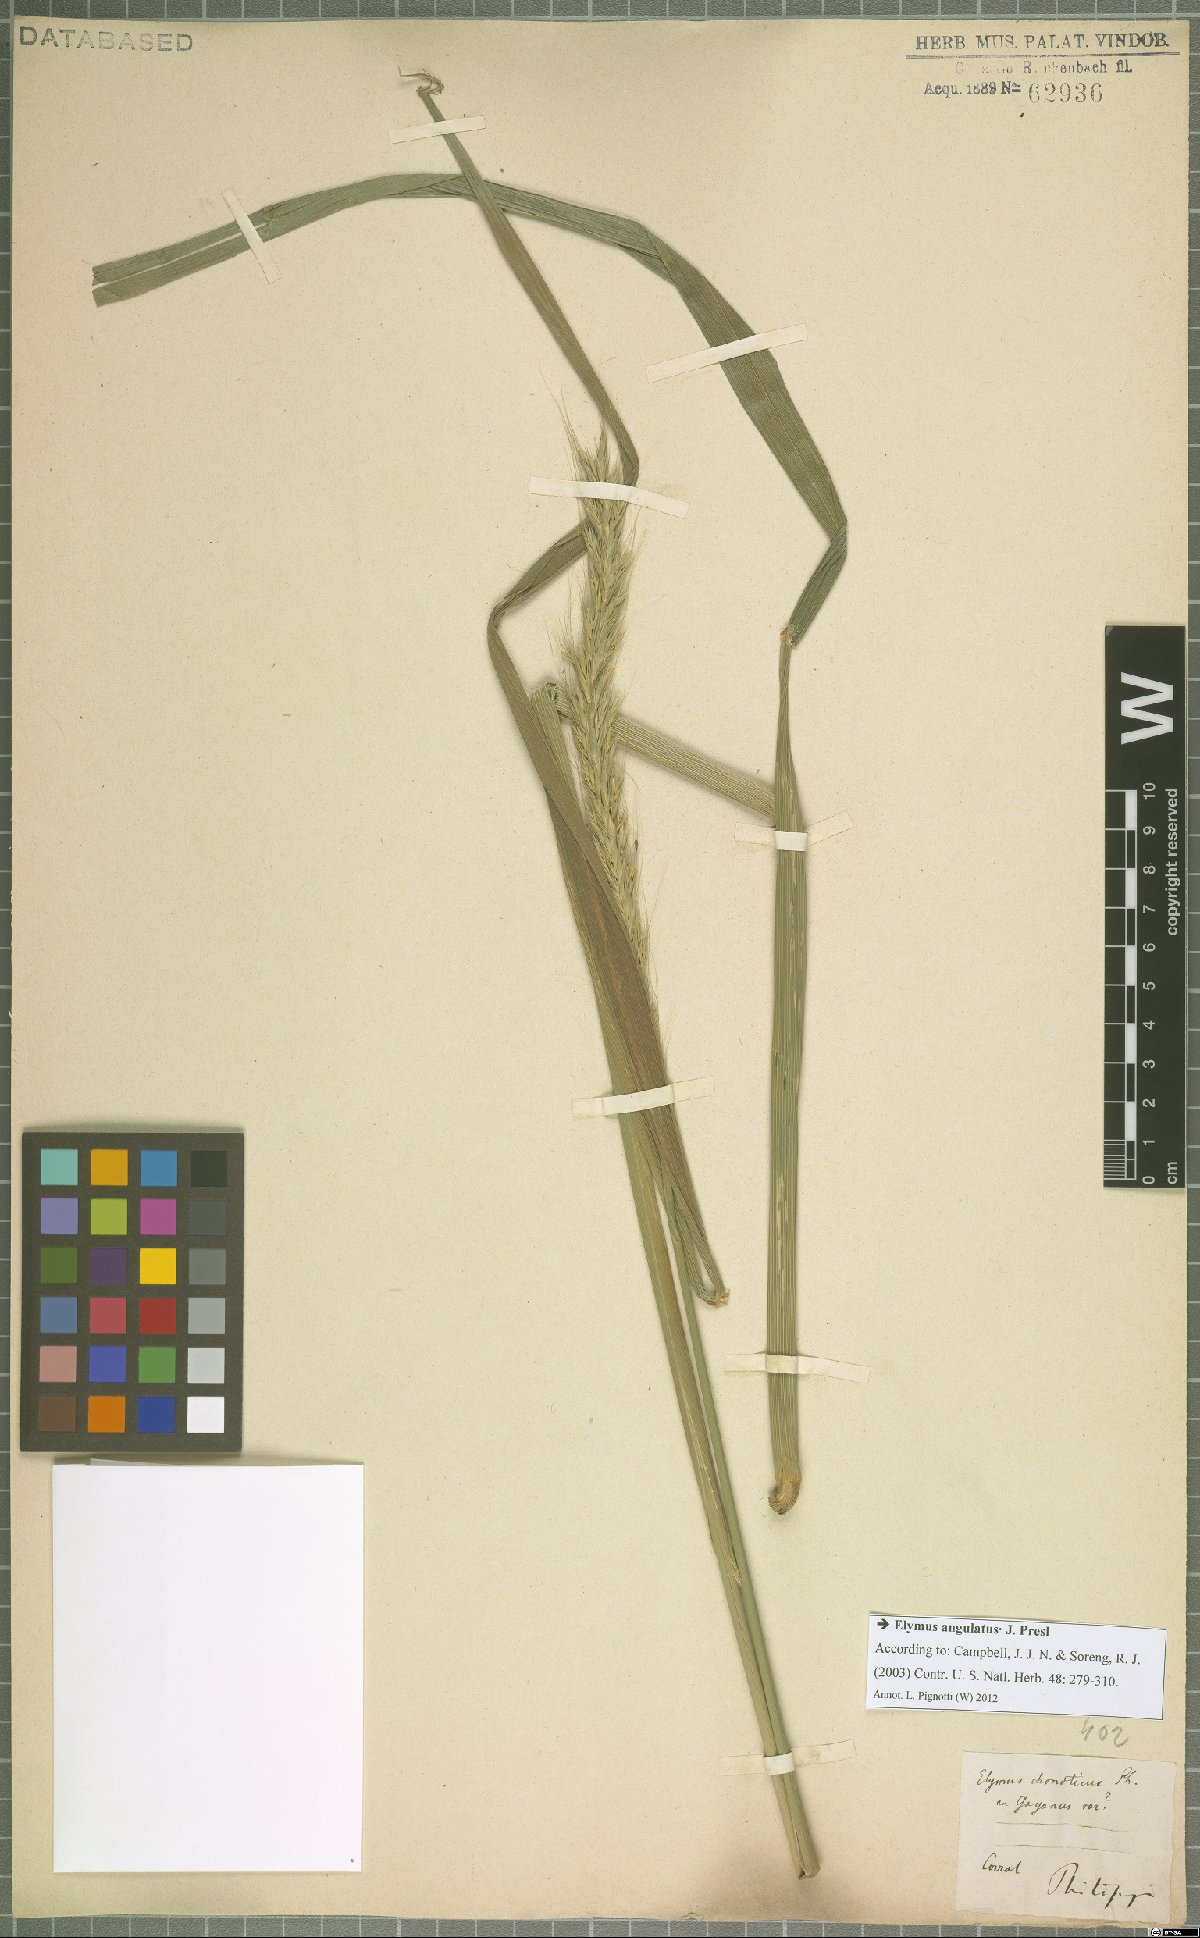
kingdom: Plantae
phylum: Tracheophyta
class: Liliopsida
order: Poales
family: Poaceae
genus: Elymus
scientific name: Elymus angulatus
